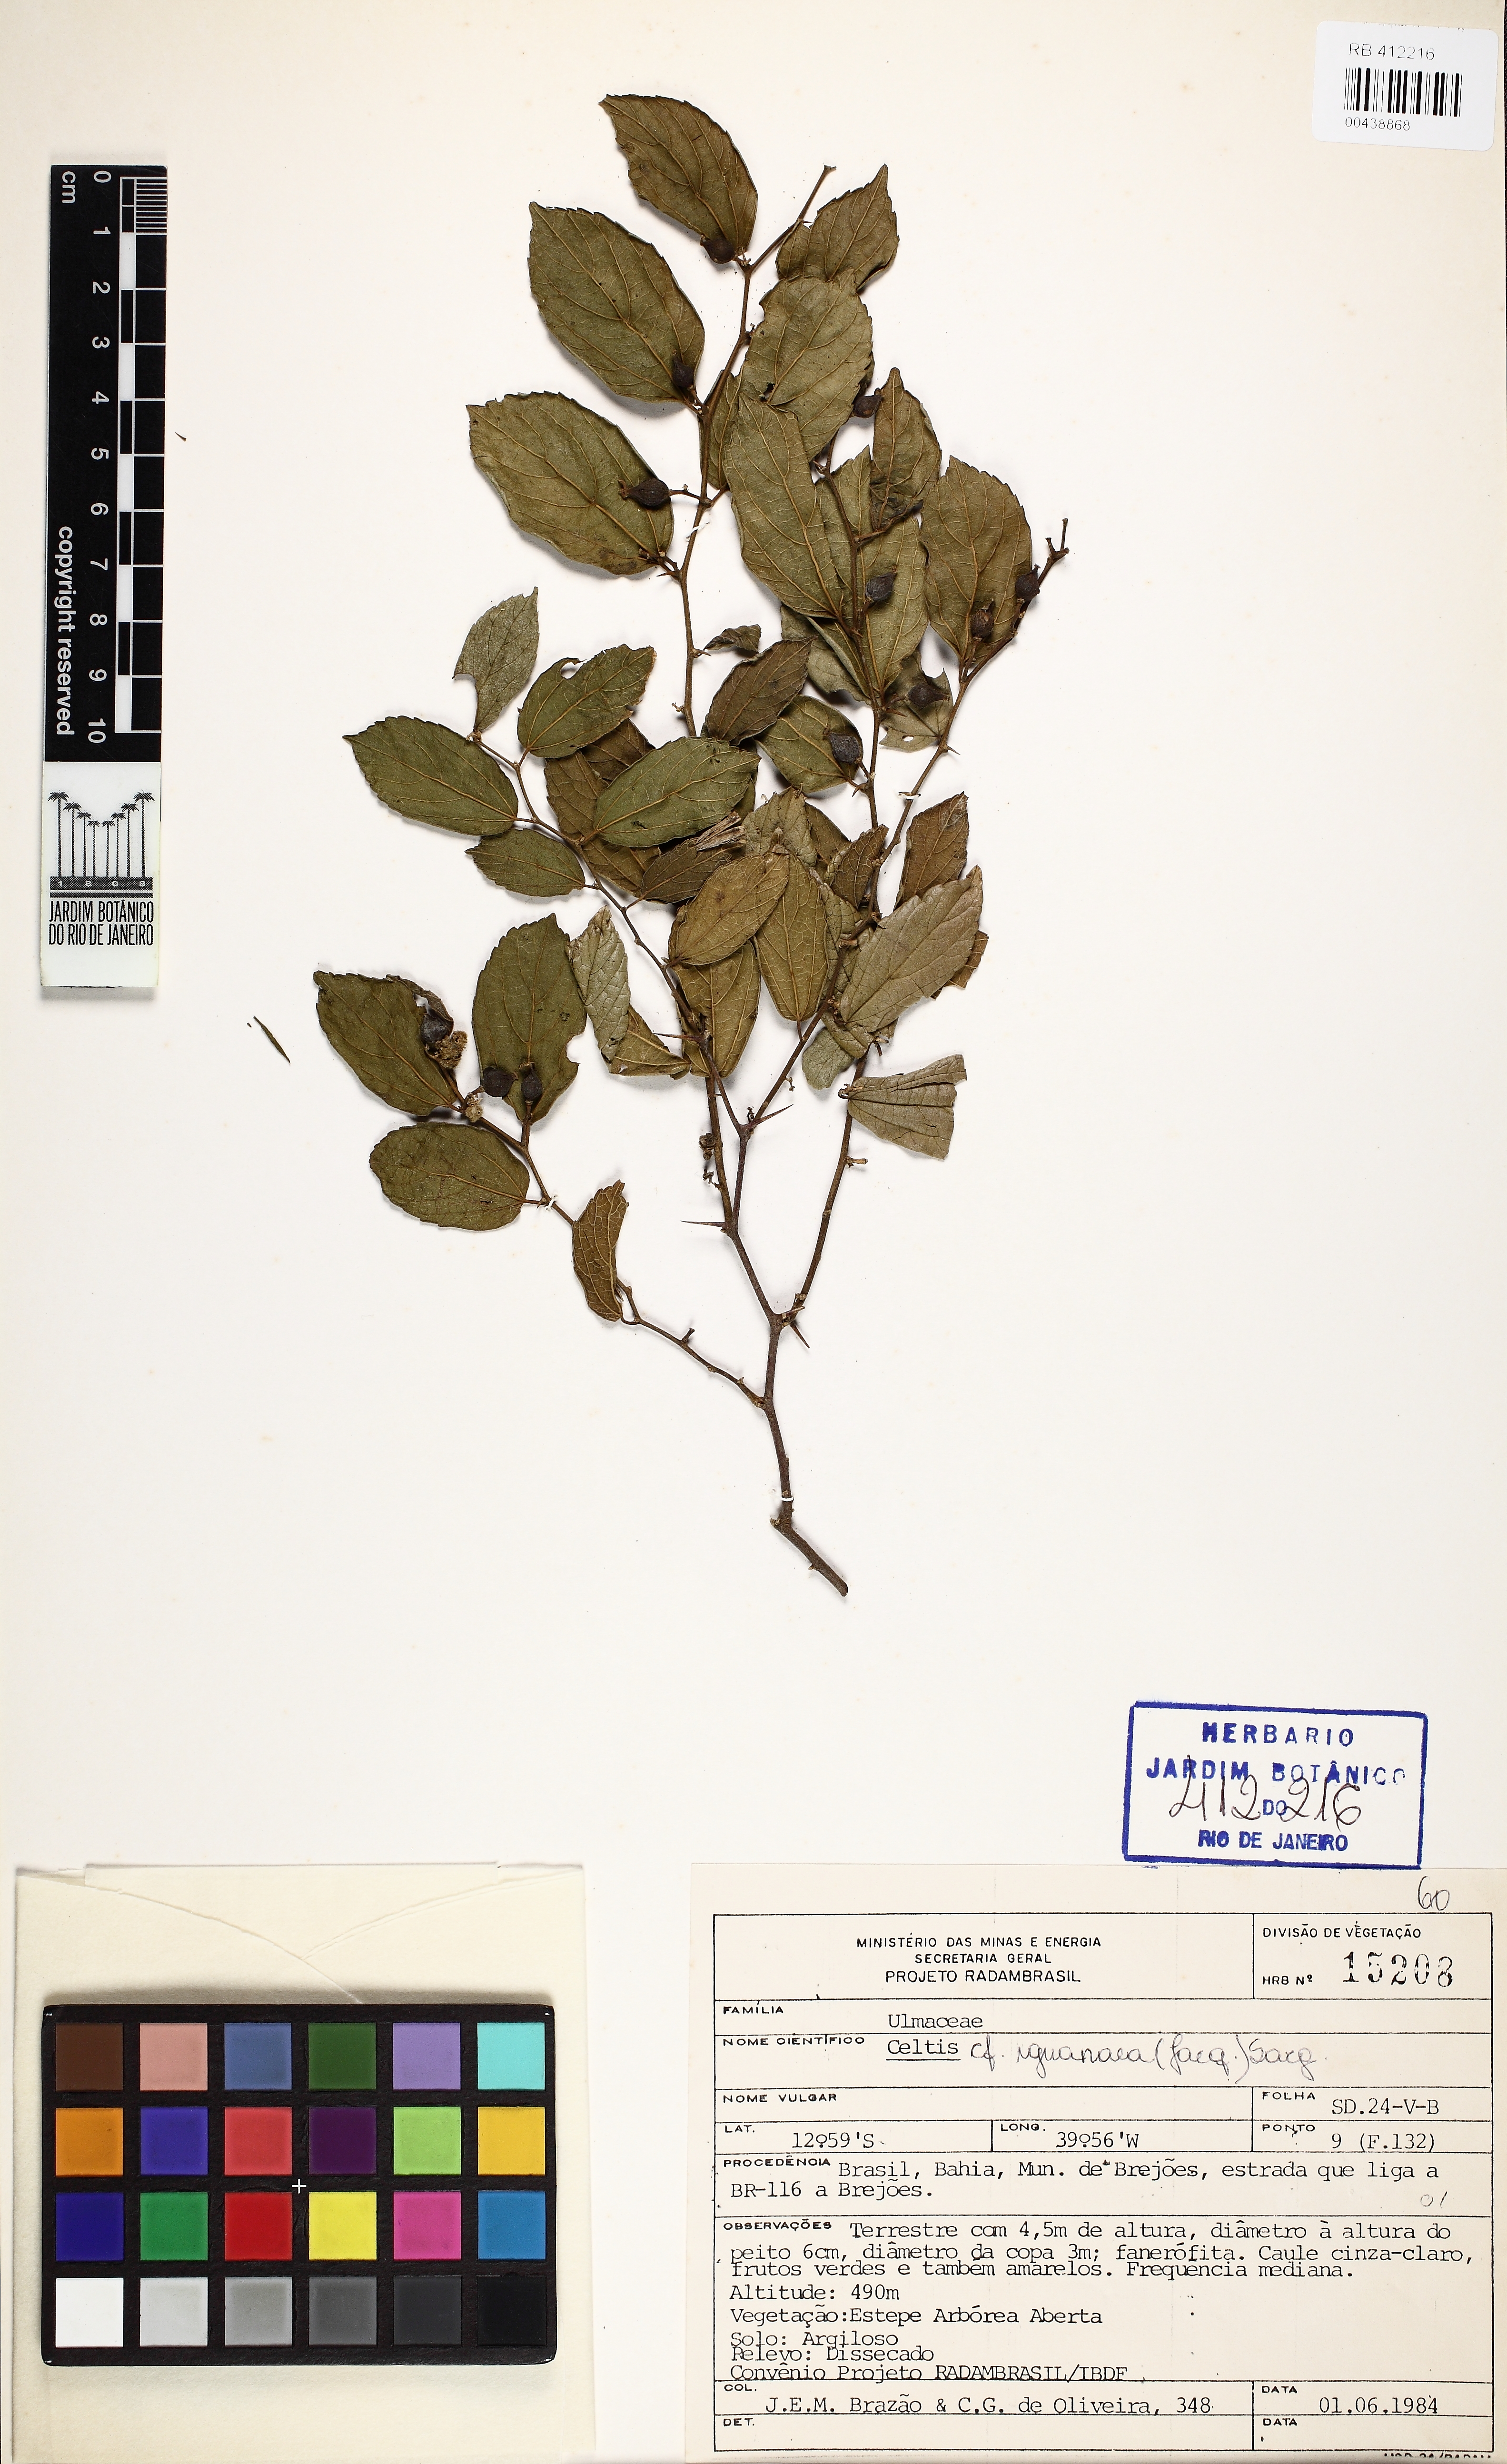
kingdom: Plantae
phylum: Tracheophyta
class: Magnoliopsida
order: Rosales
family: Cannabaceae
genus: Celtis
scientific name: Celtis iguanaea
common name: Iguana hackberry
